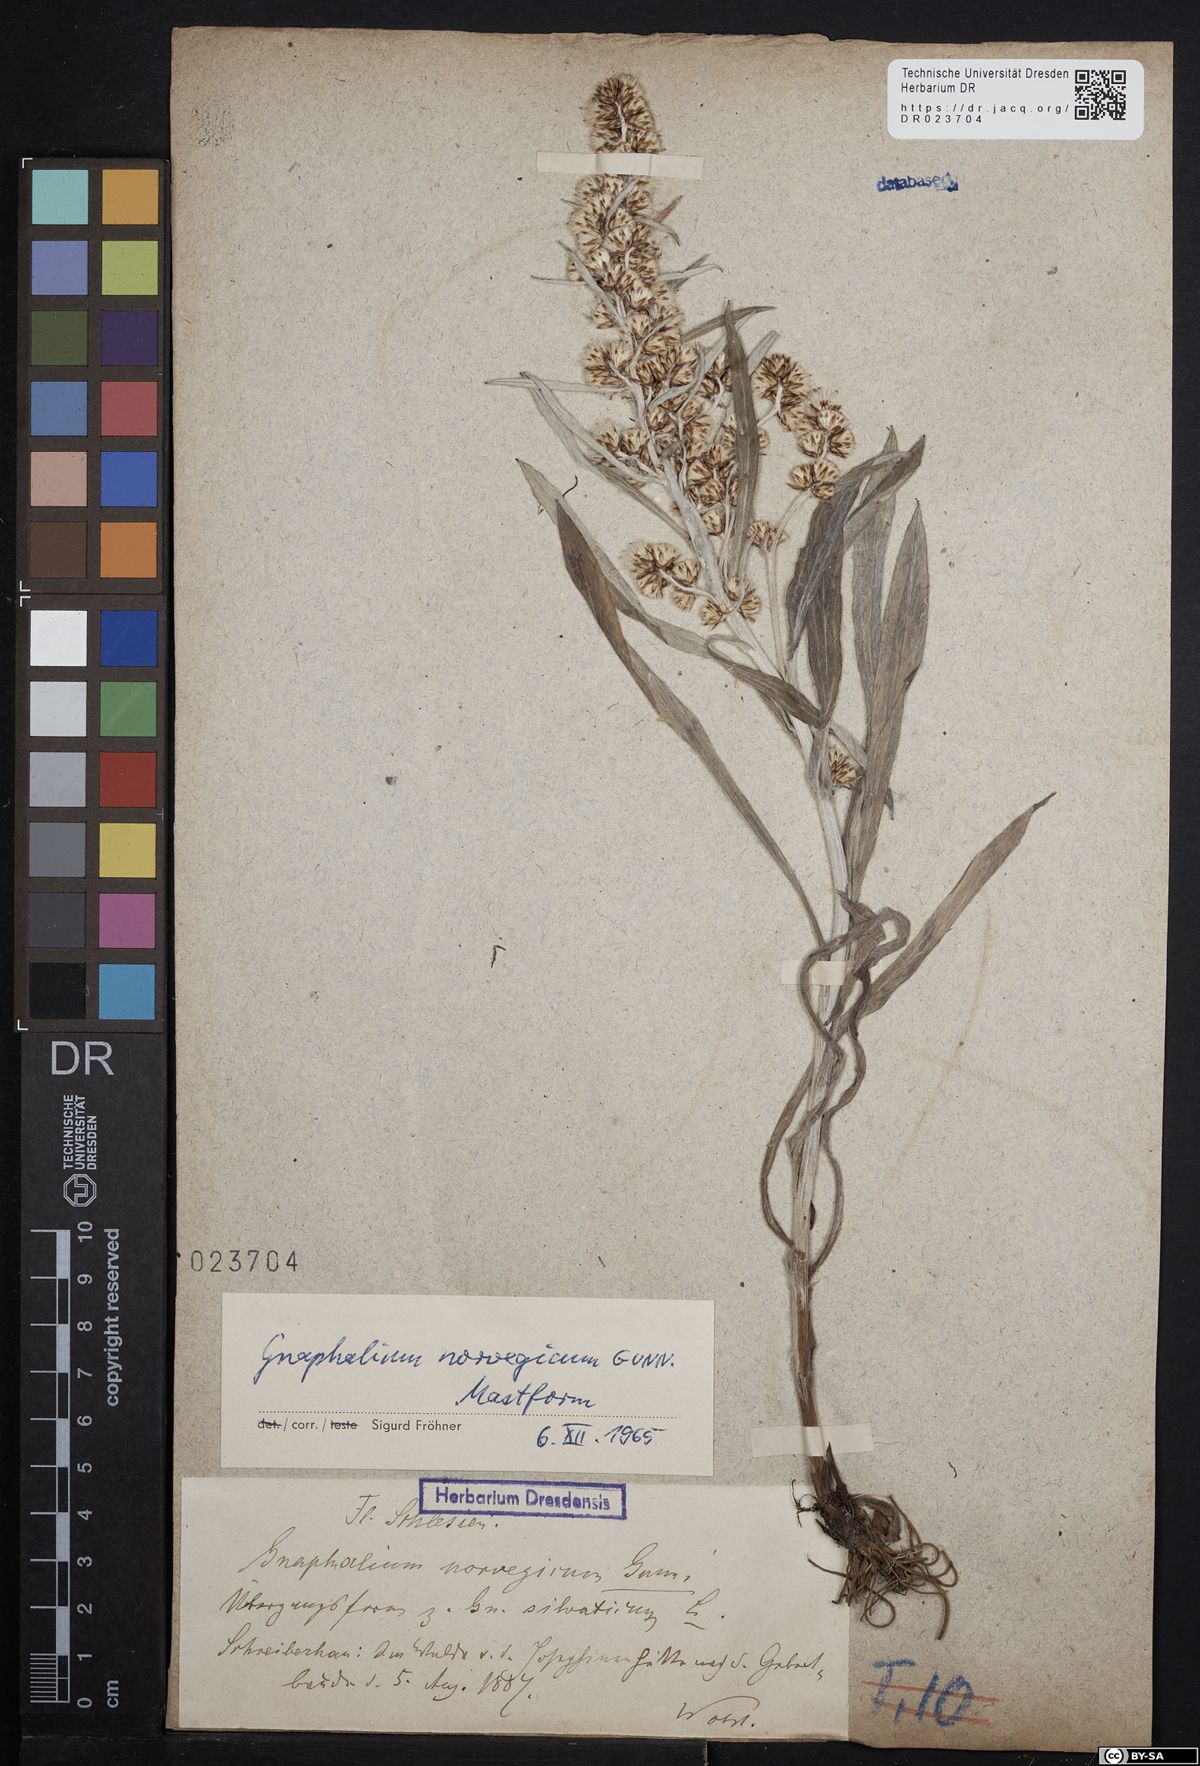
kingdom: Plantae
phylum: Tracheophyta
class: Magnoliopsida
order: Asterales
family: Asteraceae
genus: Omalotheca
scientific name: Omalotheca norvegica
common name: Norwegian arctic-cudweed
